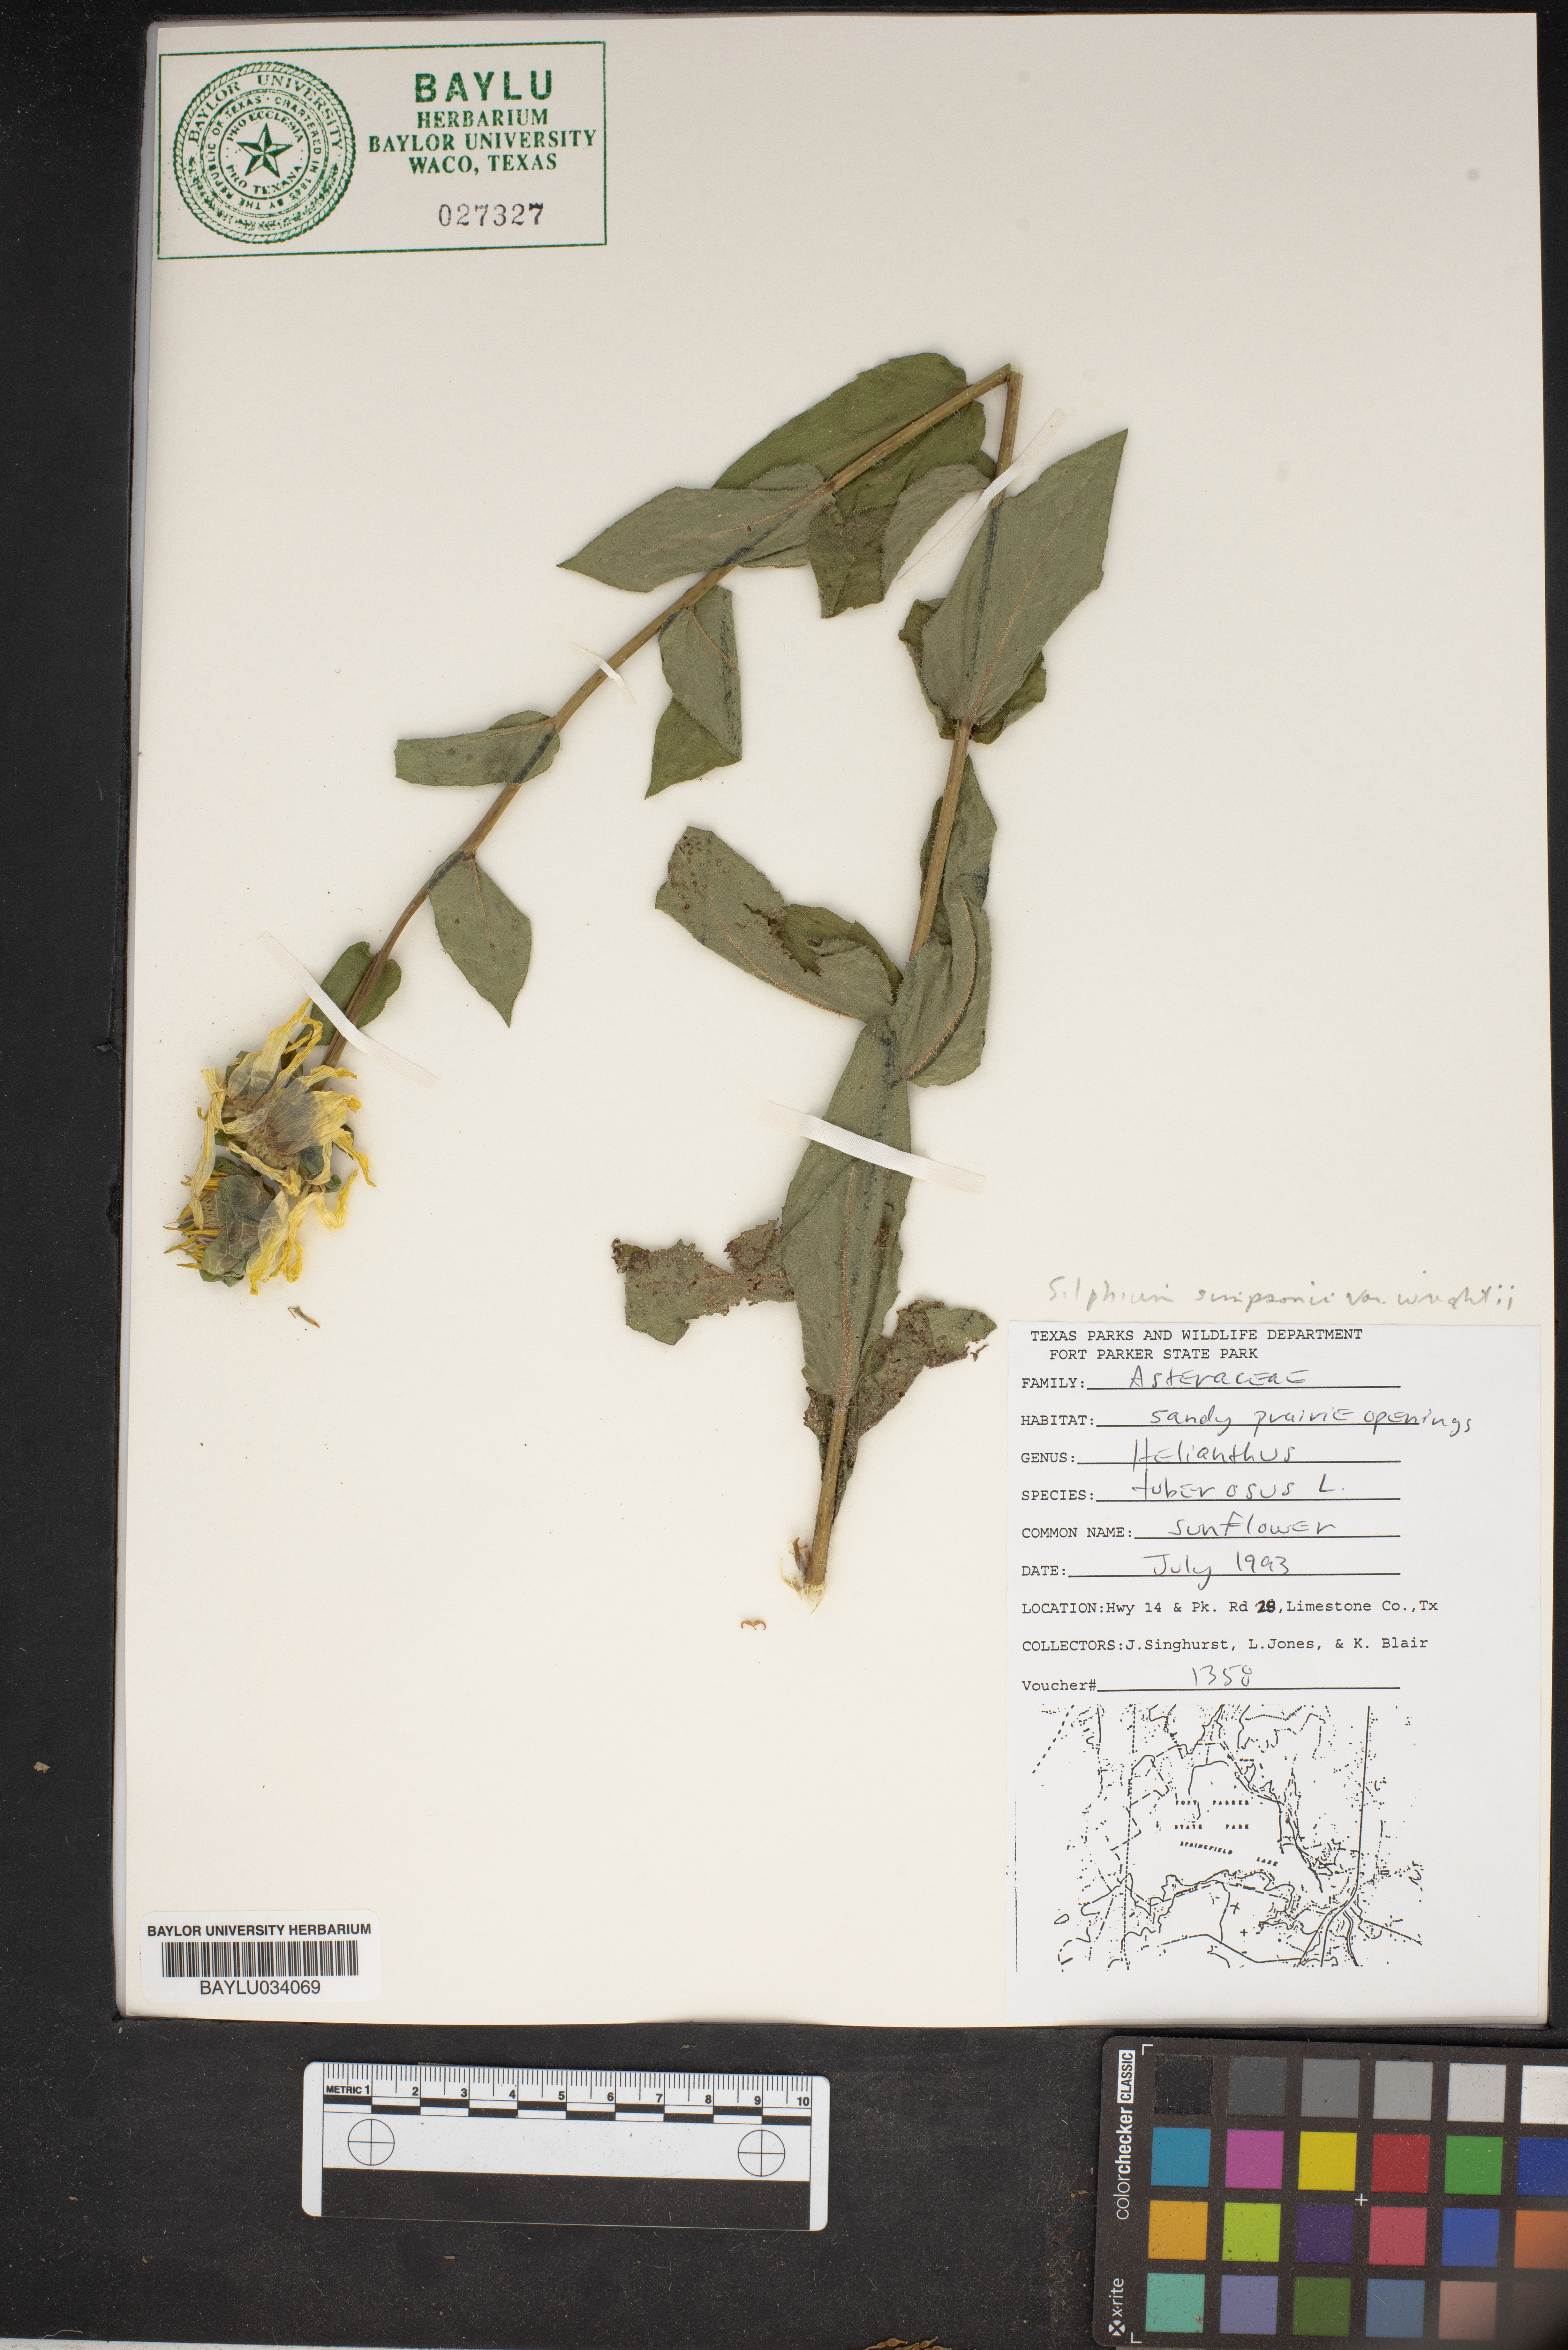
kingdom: Plantae
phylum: Tracheophyta
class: Magnoliopsida
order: Asterales
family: Asteraceae
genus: Helianthus
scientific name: Helianthus tuberosus
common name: Jerusalem artichoke
